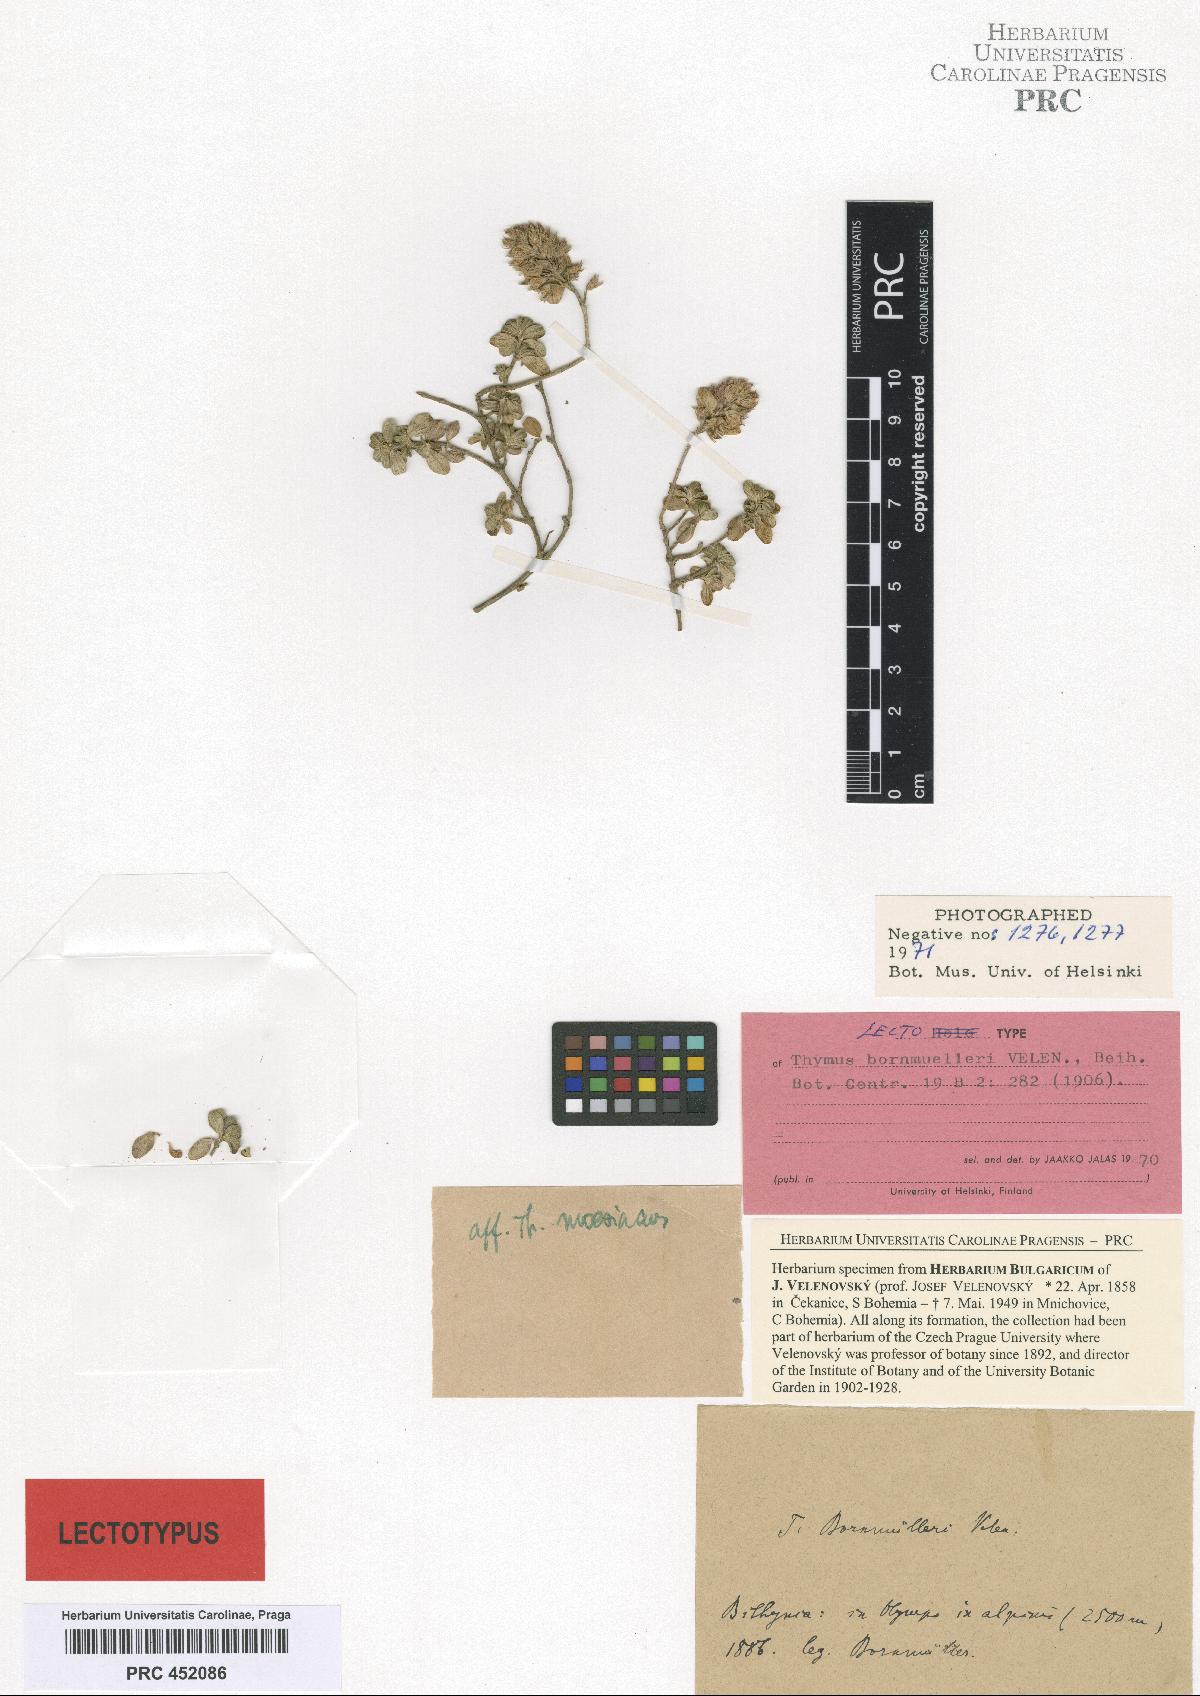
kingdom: Plantae
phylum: Tracheophyta
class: Magnoliopsida
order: Lamiales
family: Lamiaceae
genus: Thymus
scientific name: Thymus bornmuelleri
